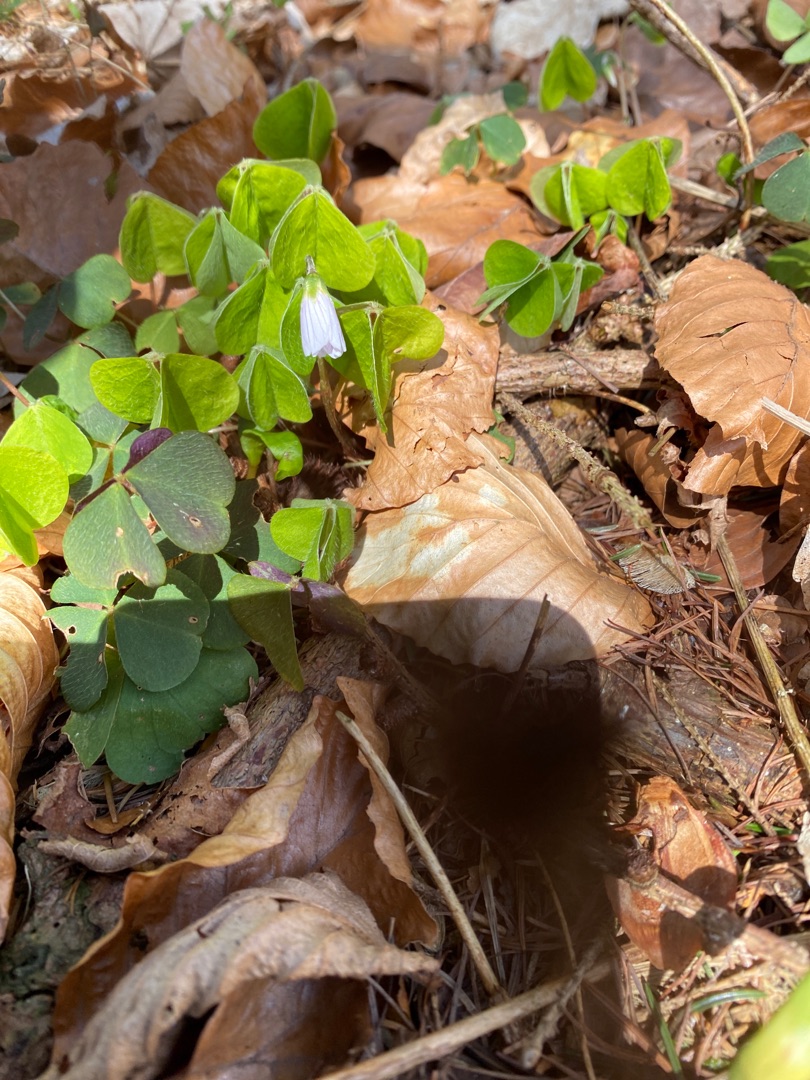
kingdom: Plantae
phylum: Tracheophyta
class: Magnoliopsida
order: Oxalidales
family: Oxalidaceae
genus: Oxalis
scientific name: Oxalis acetosella
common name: Skovsyre
